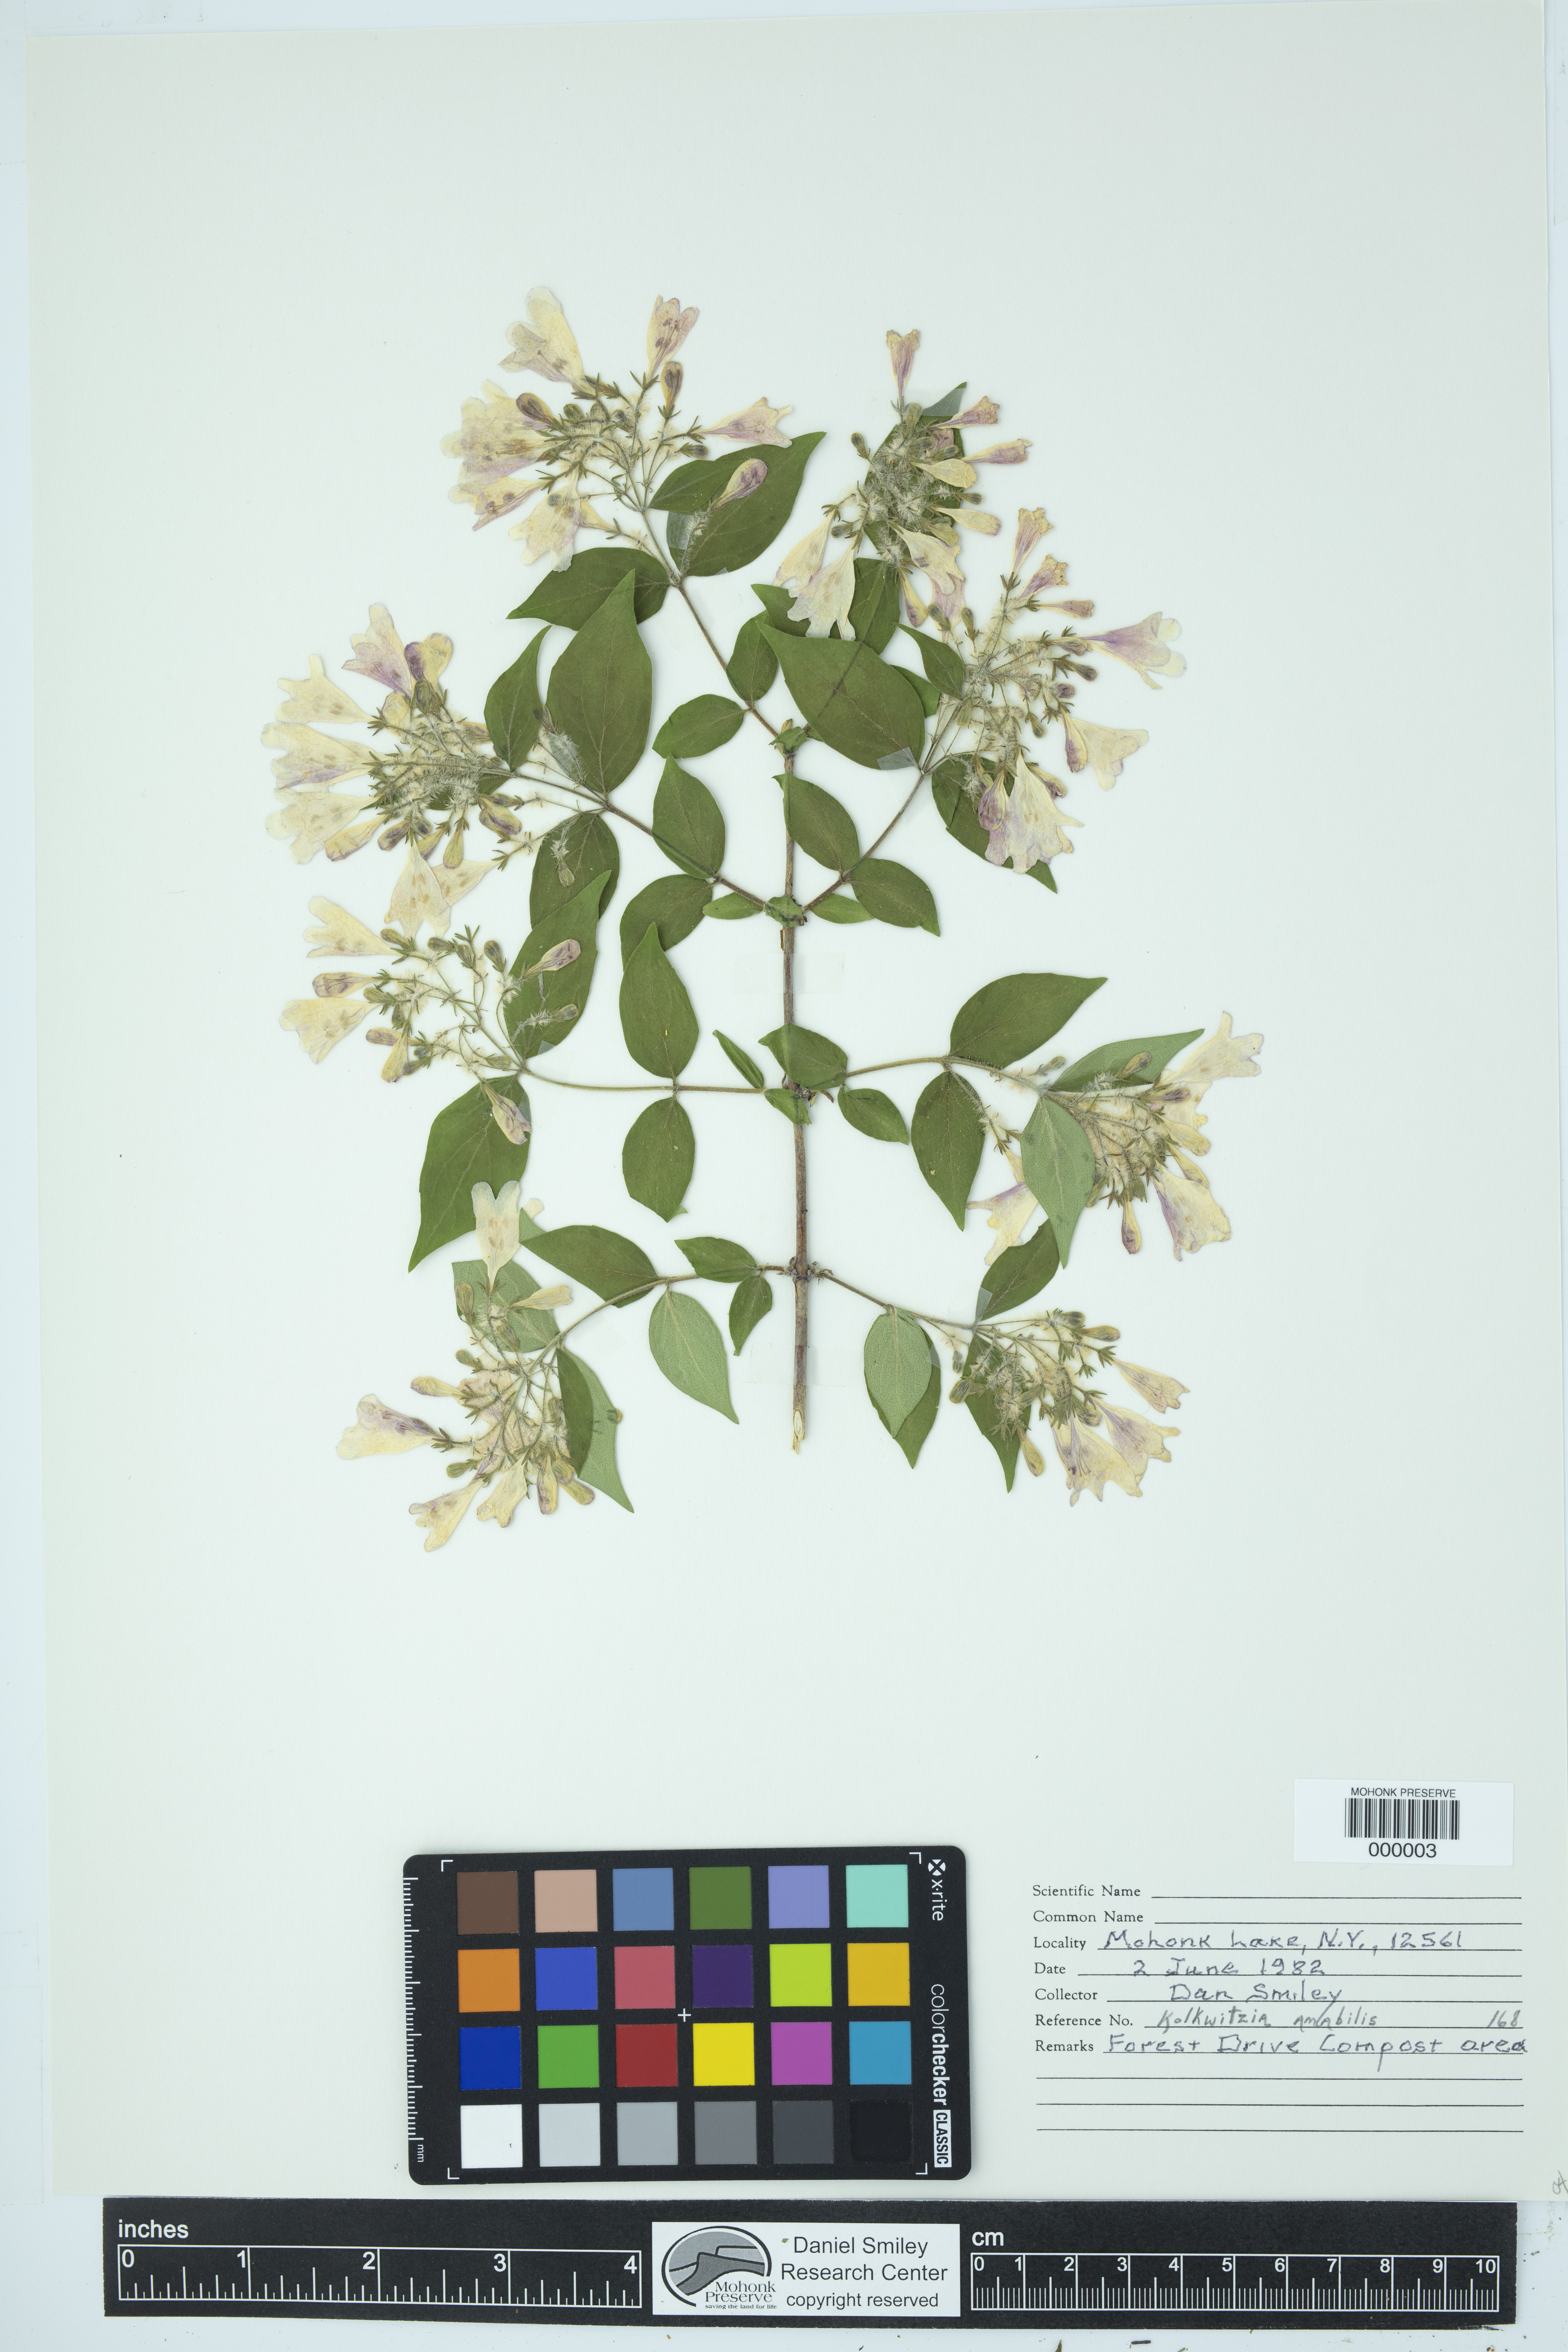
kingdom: Plantae
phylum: Tracheophyta
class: Magnoliopsida
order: Dipsacales
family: Caprifoliaceae
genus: Kolkwitzia
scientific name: Kolkwitzia amabilis
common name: Beautybush
